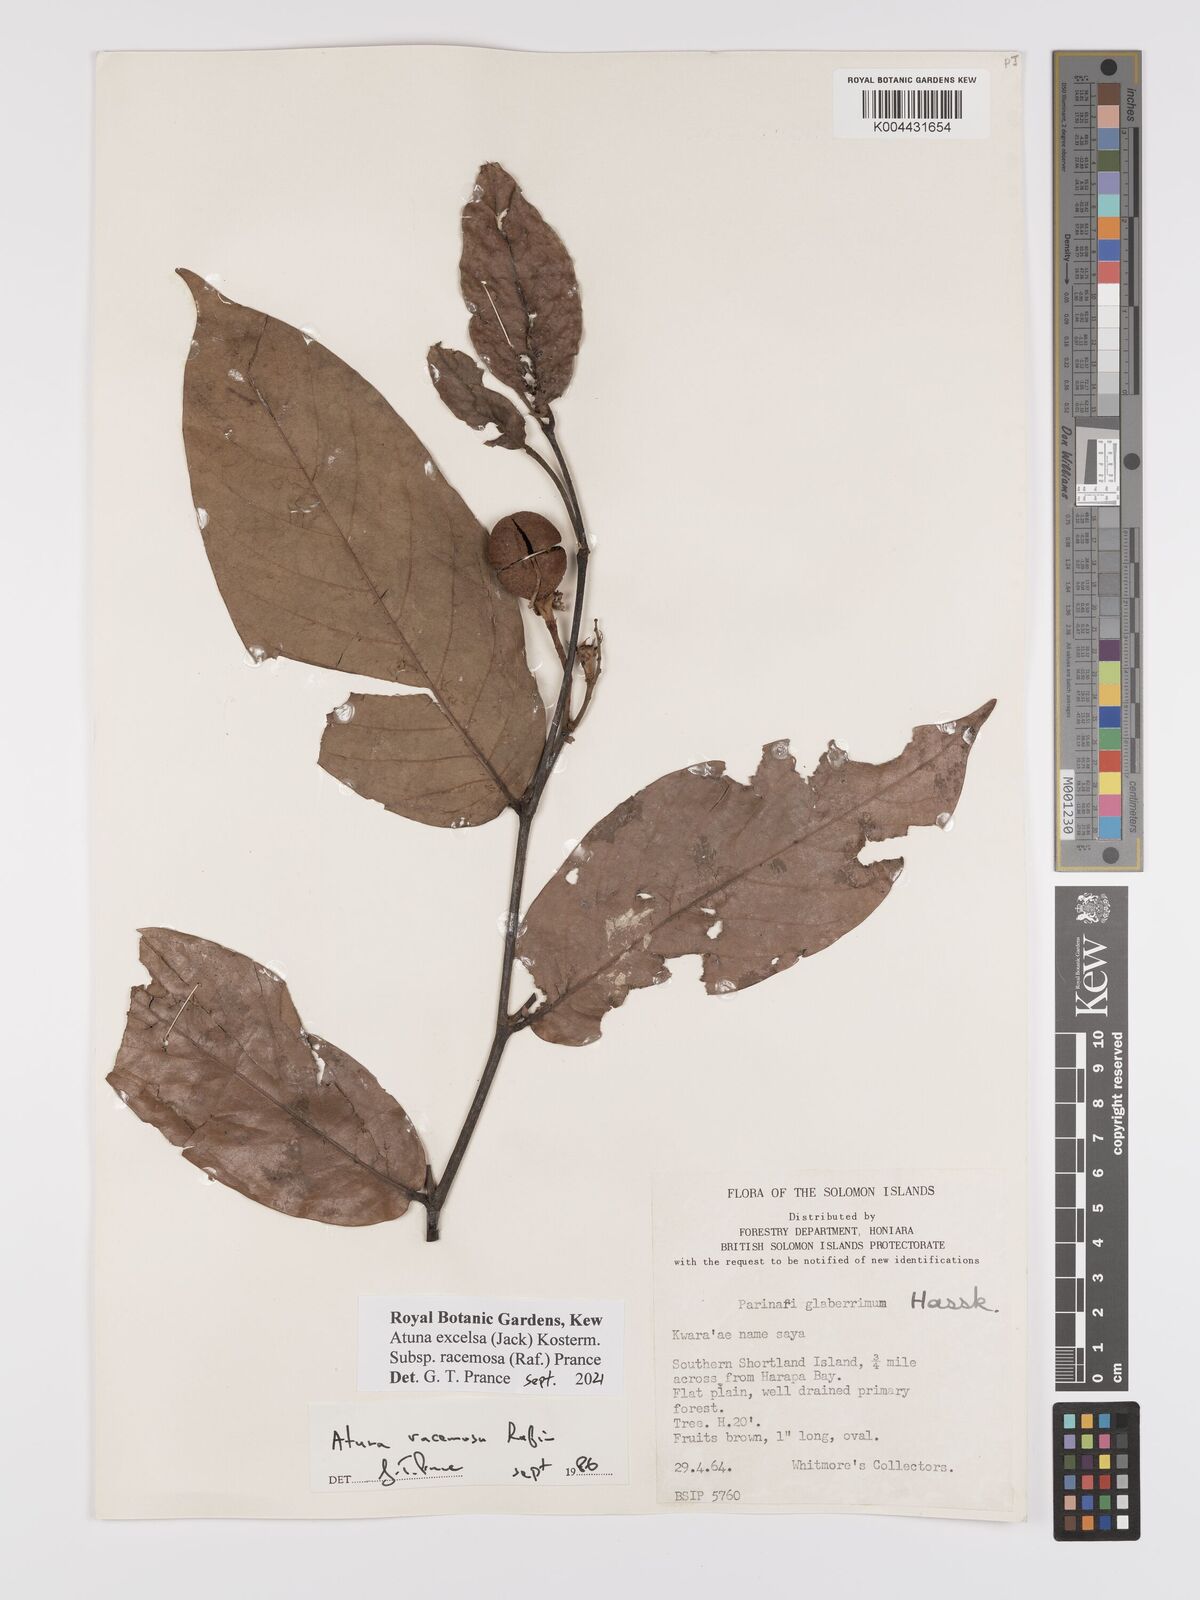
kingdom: Plantae
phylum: Tracheophyta
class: Magnoliopsida
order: Malpighiales
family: Chrysobalanaceae
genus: Atuna
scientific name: Atuna excelsa
